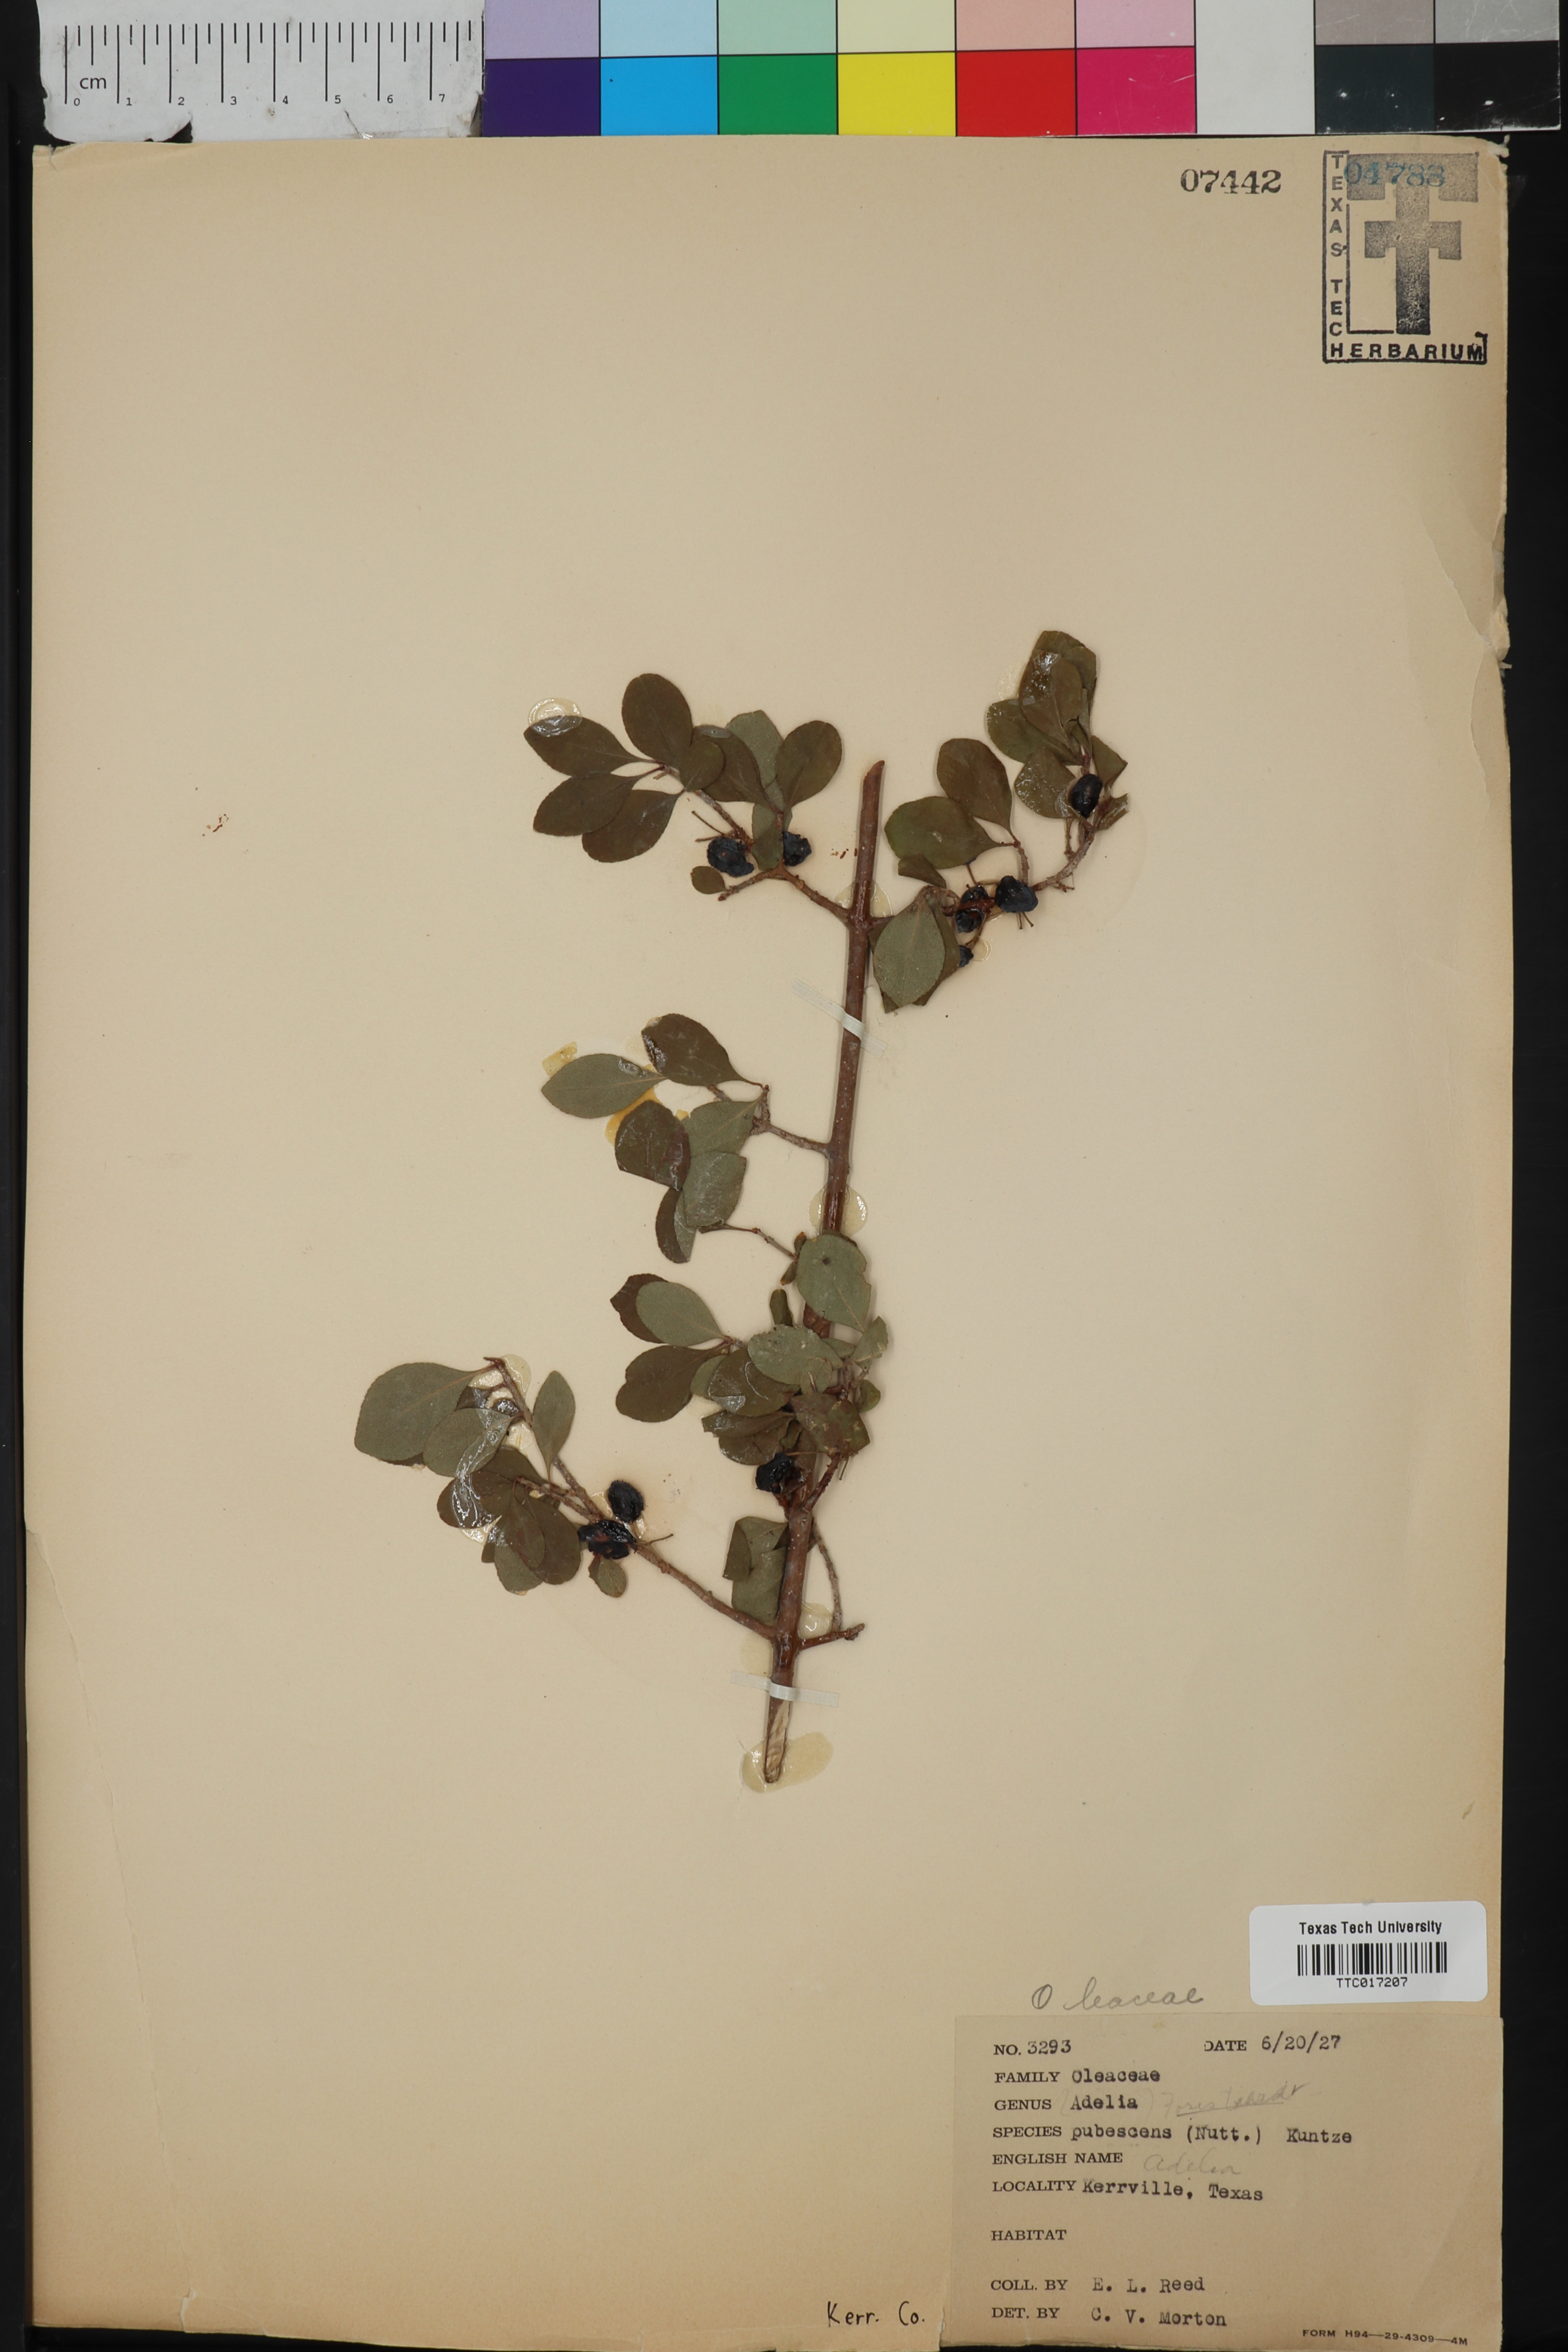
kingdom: Plantae
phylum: Tracheophyta
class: Magnoliopsida
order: Lamiales
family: Oleaceae
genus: Forestiera
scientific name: Forestiera pubescens
